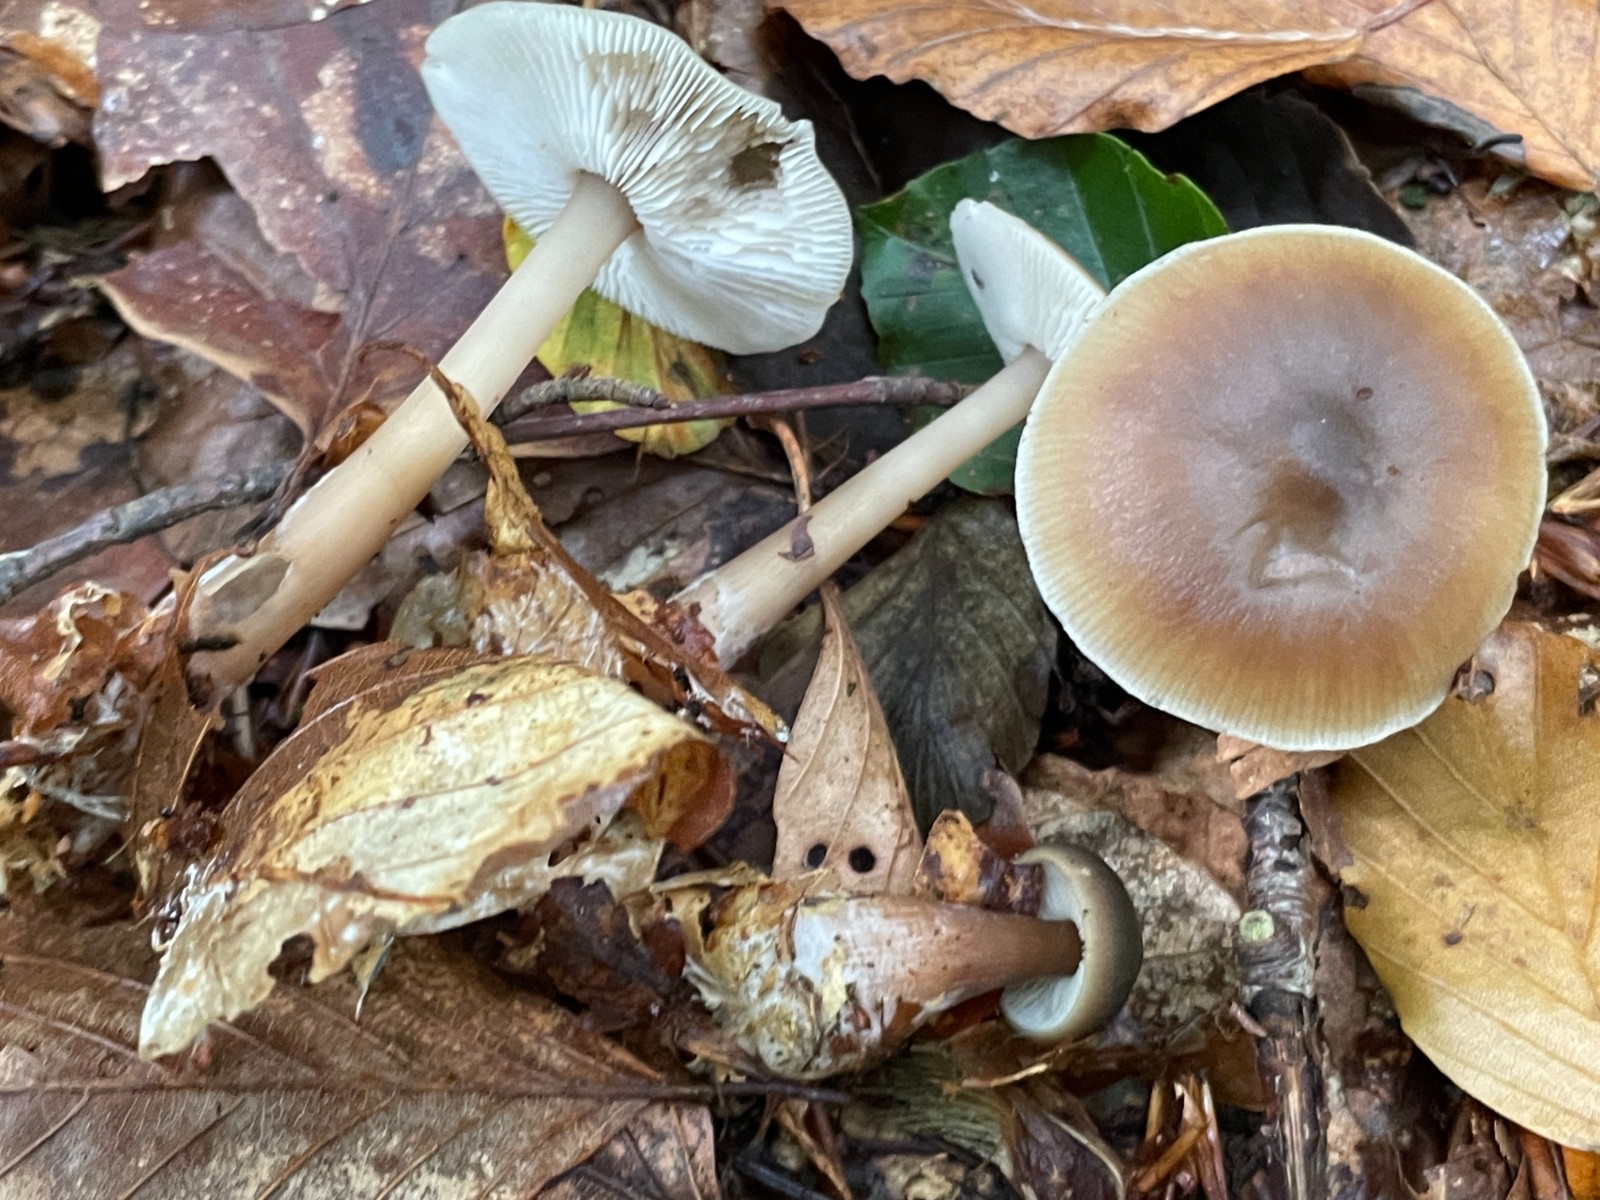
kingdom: Fungi
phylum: Basidiomycota
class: Agaricomycetes
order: Agaricales
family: Omphalotaceae
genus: Rhodocollybia
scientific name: Rhodocollybia asema
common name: horngrå fladhat
